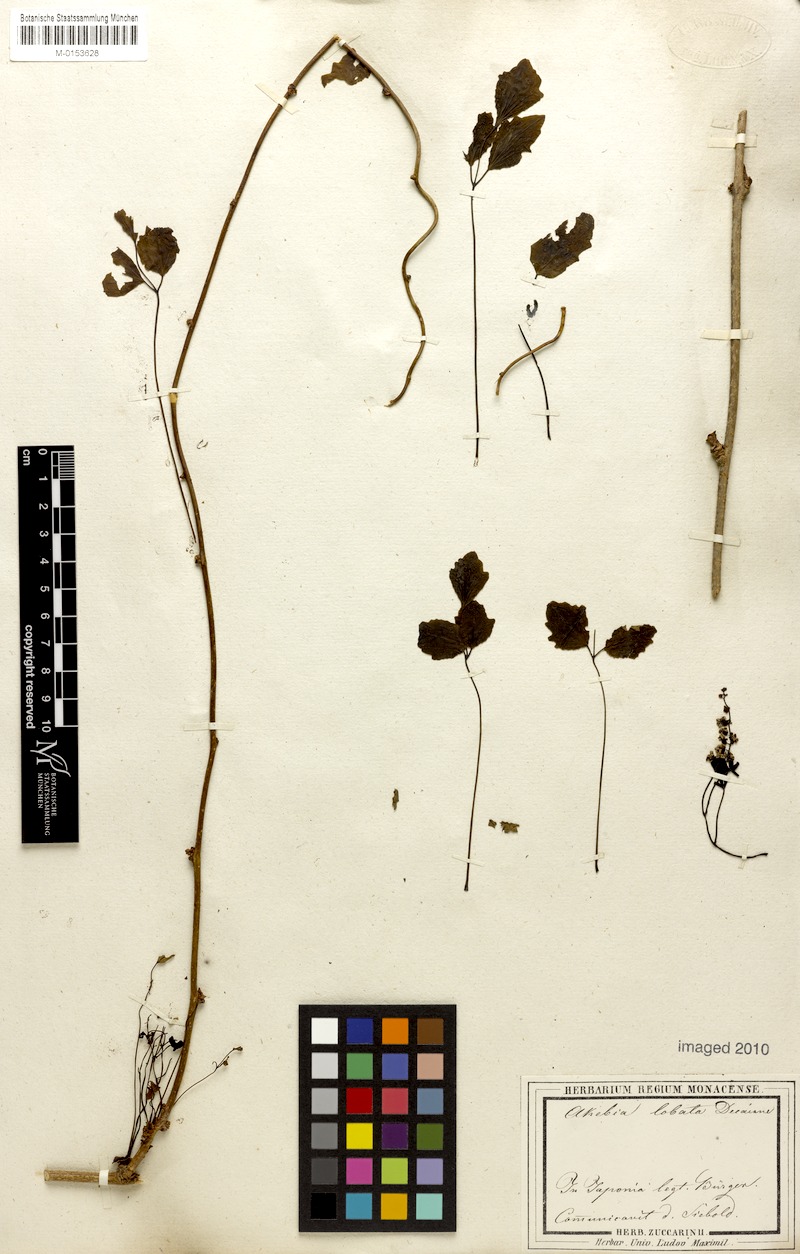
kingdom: Plantae
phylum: Tracheophyta
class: Magnoliopsida
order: Ranunculales
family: Lardizabalaceae
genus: Akebia
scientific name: Akebia trifoliata
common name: Chocolate-vine
